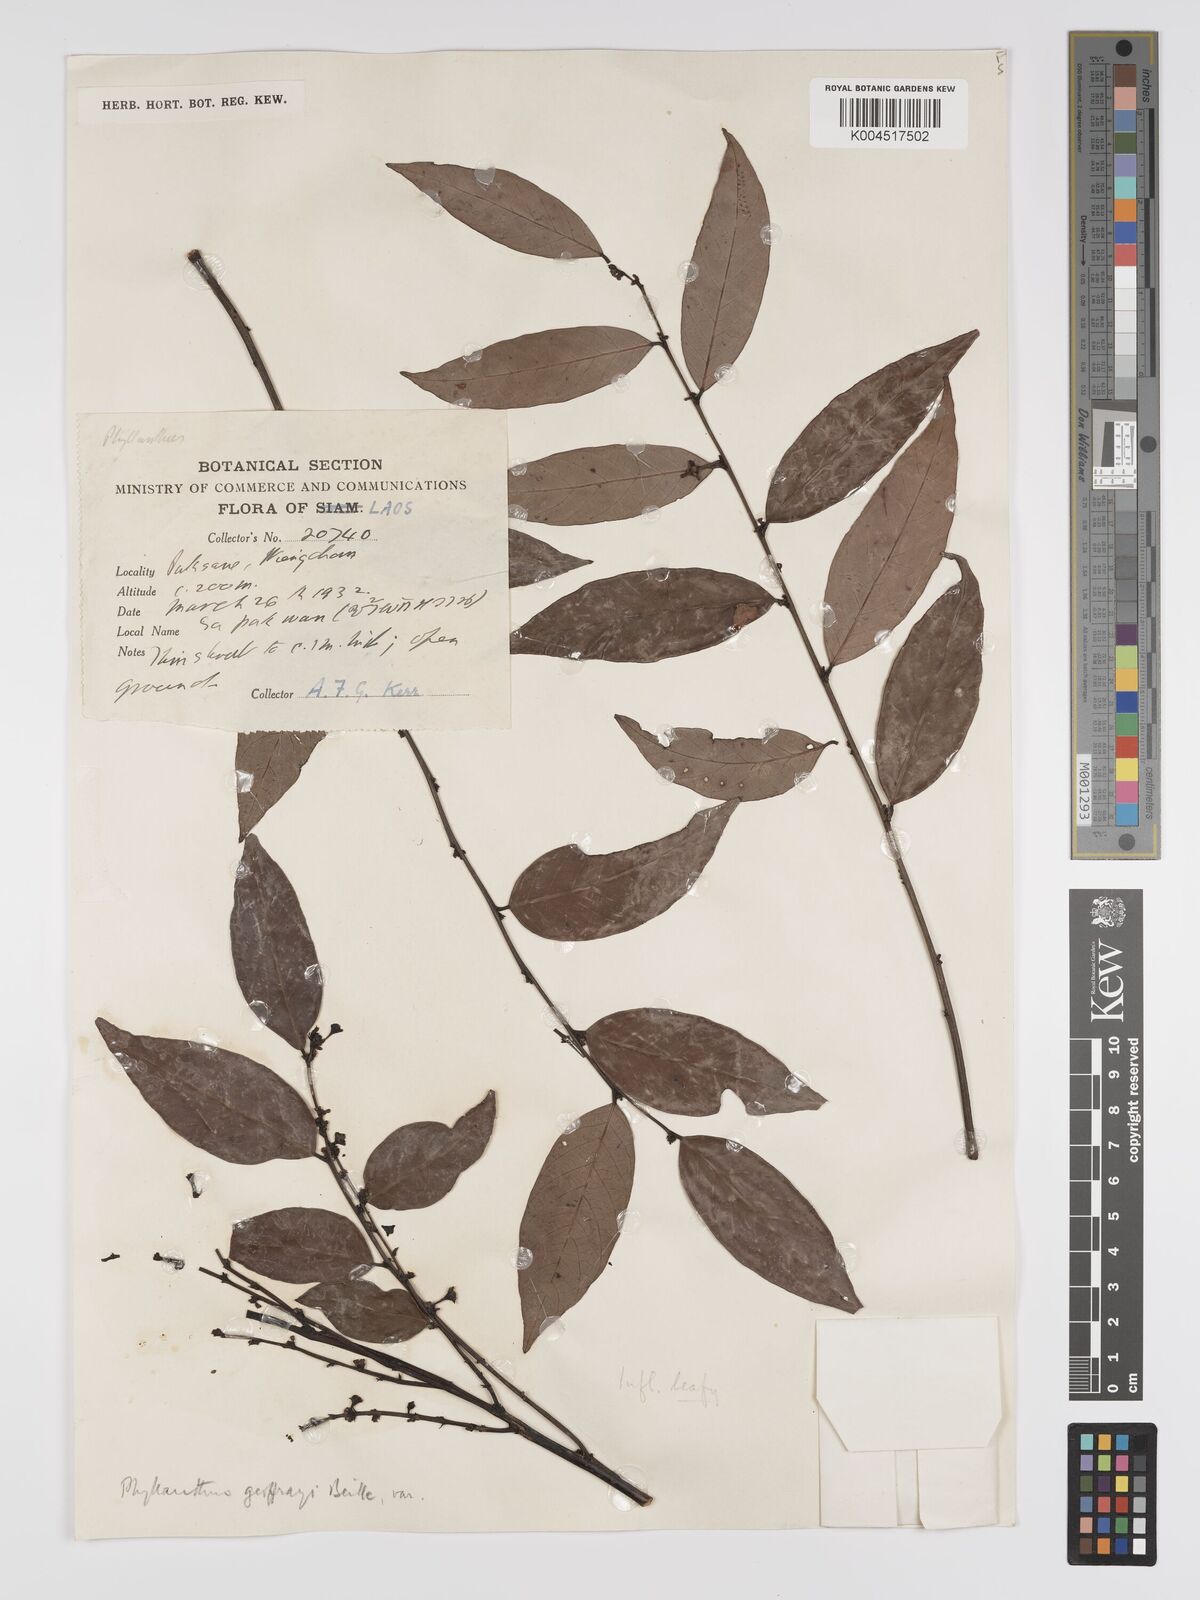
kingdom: Plantae
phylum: Tracheophyta
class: Magnoliopsida
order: Malpighiales
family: Phyllanthaceae
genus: Phyllanthus
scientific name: Phyllanthus geoffrayi
